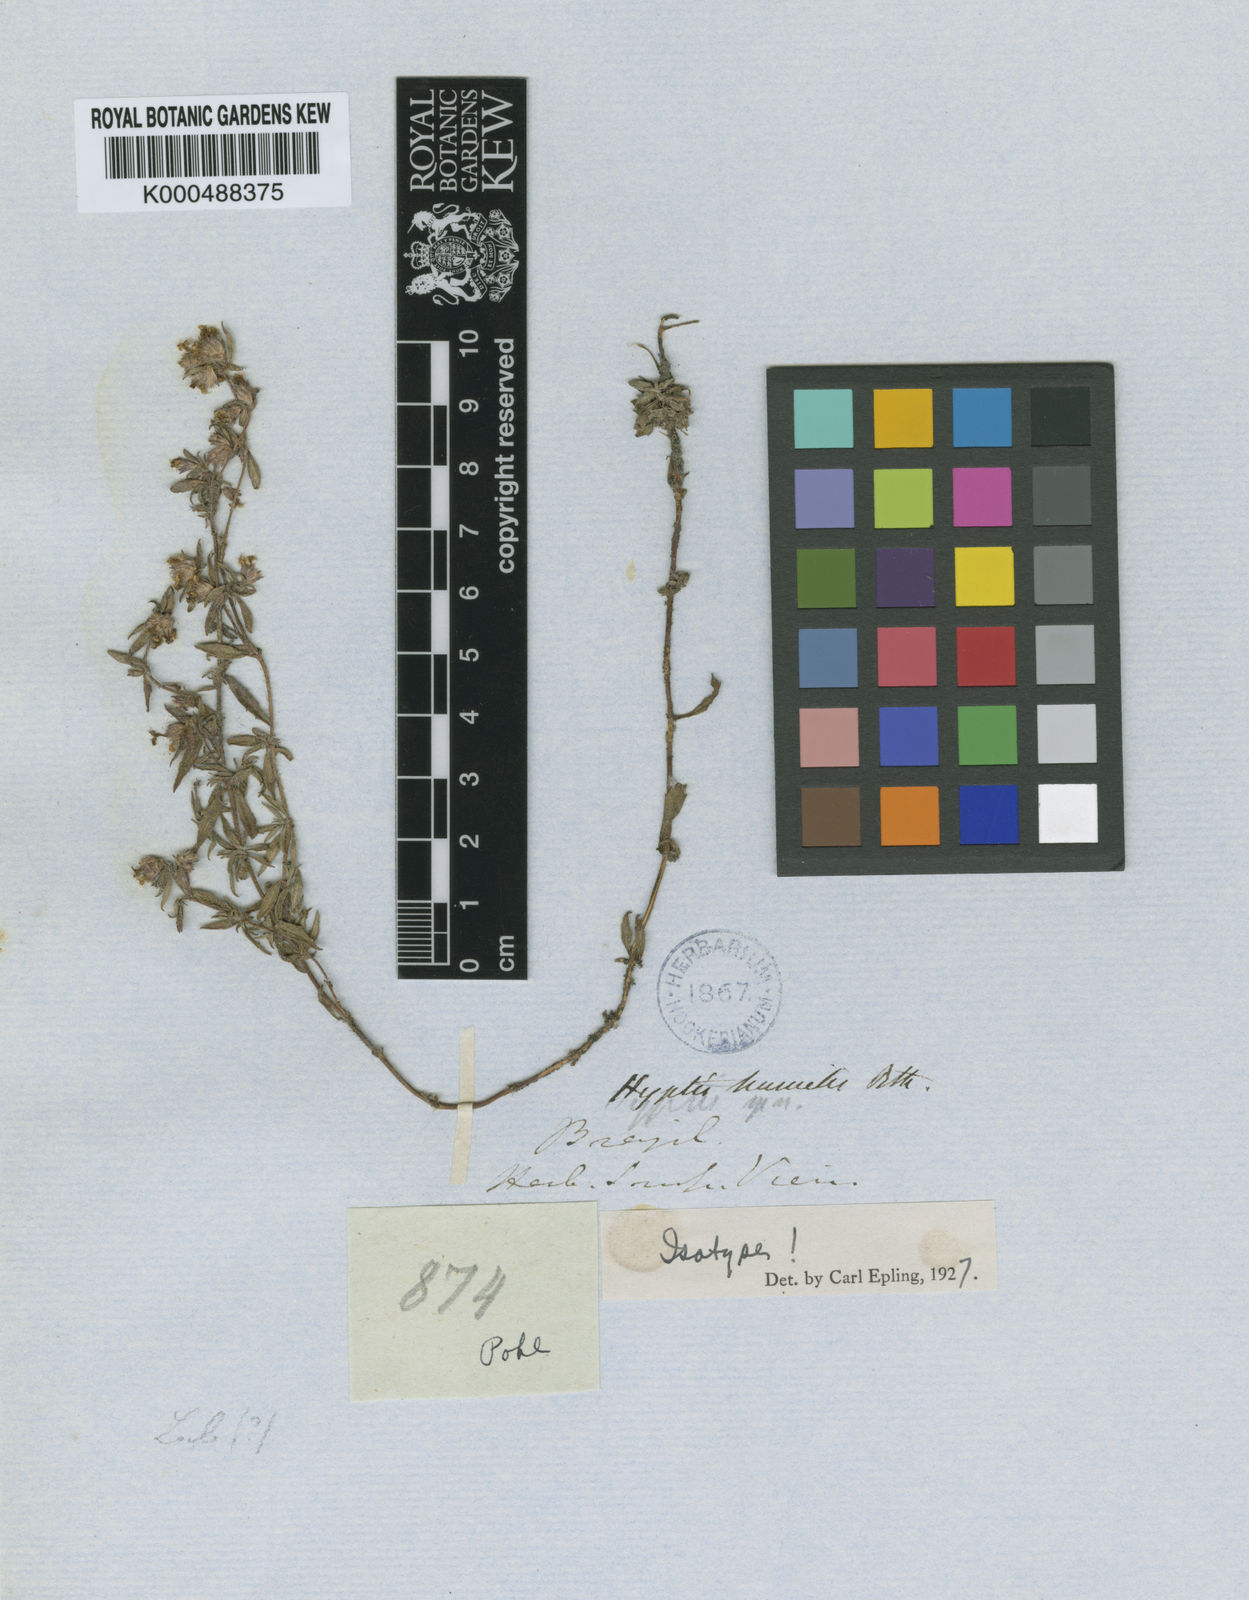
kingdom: Plantae
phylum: Tracheophyta
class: Magnoliopsida
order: Lamiales
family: Lamiaceae
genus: Hyptis
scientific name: Hyptis humilis
